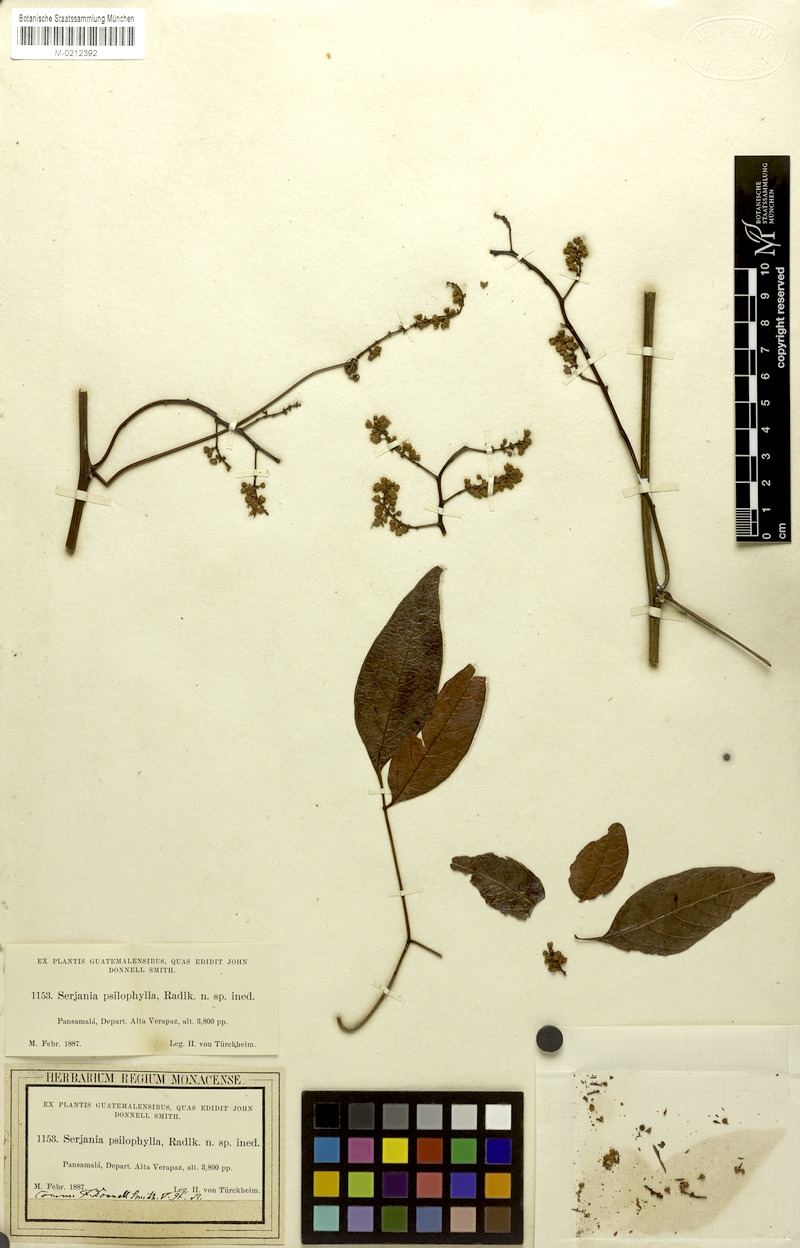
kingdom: Plantae
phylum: Tracheophyta
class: Magnoliopsida
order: Sapindales
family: Sapindaceae
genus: Serjania
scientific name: Serjania psilophylla
